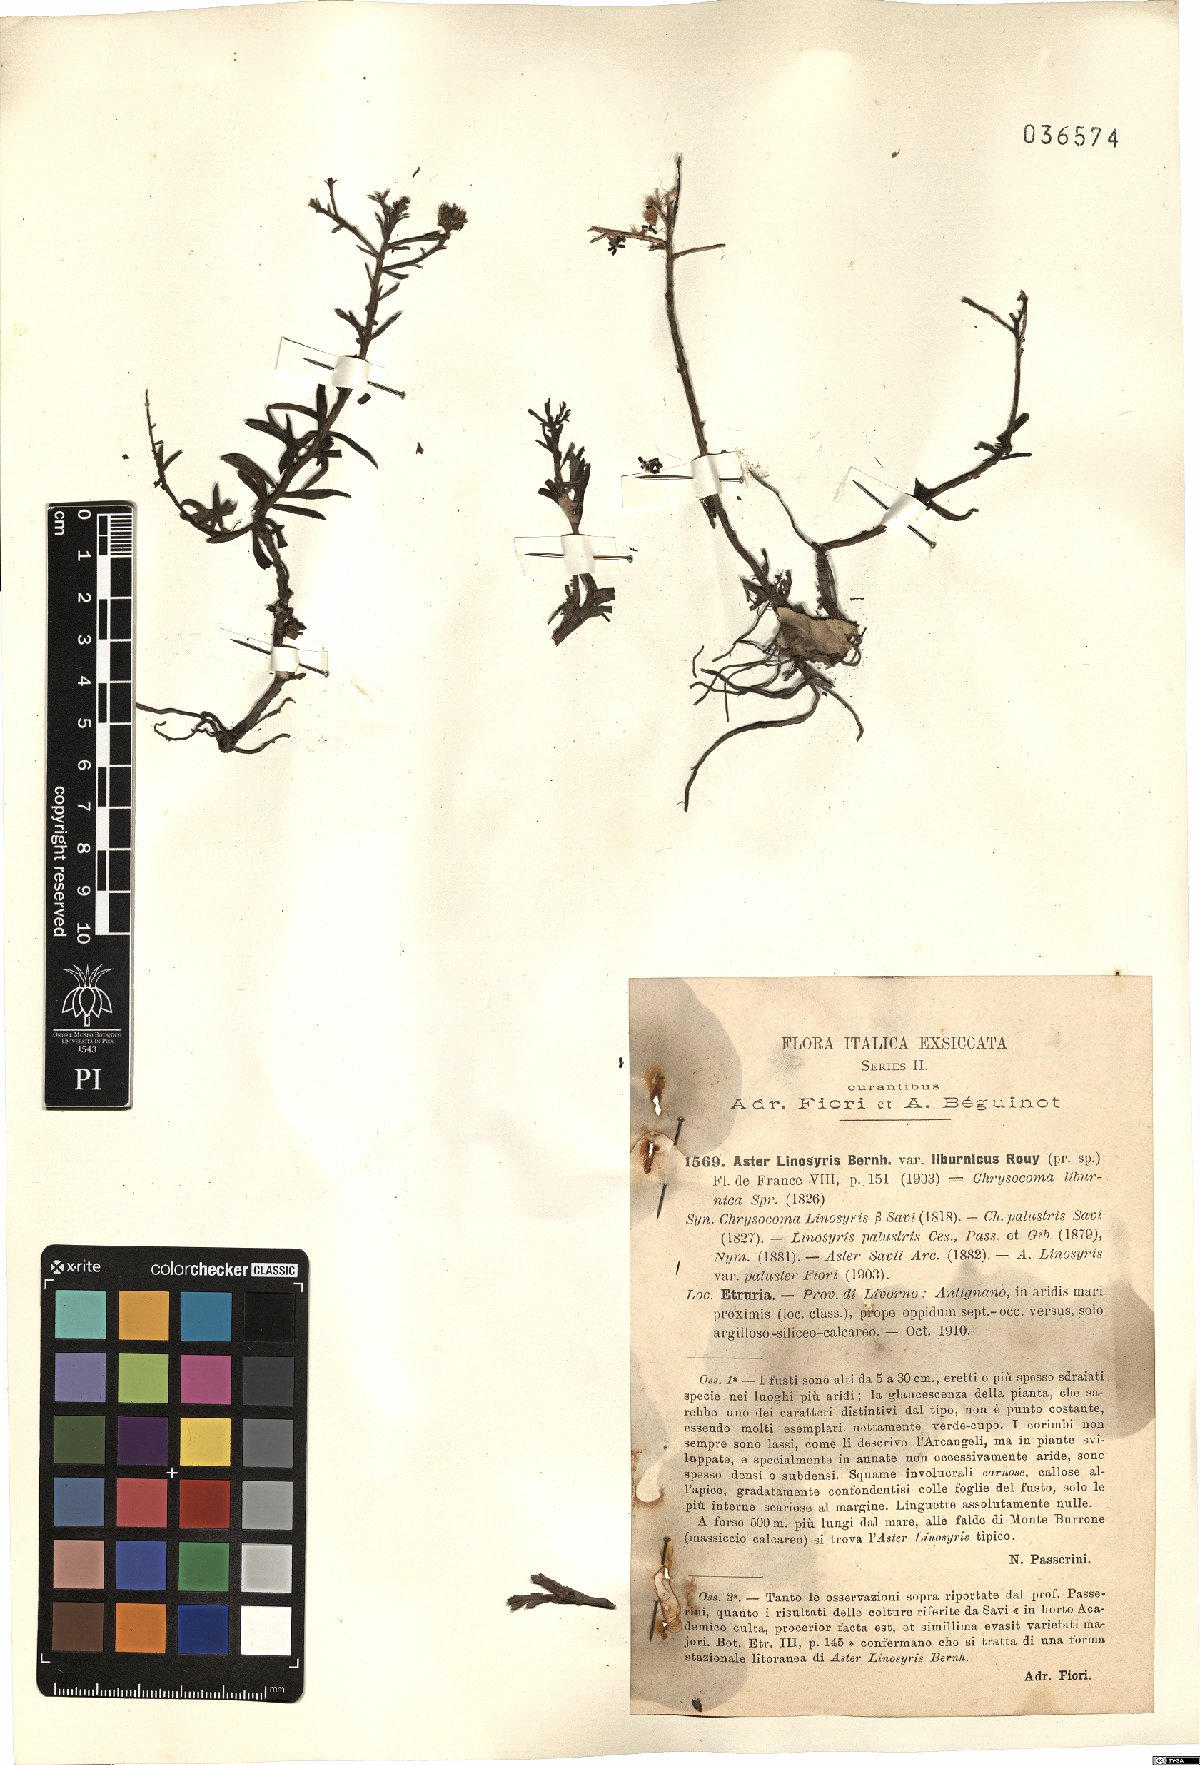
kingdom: Plantae
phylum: Tracheophyta
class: Magnoliopsida
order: Asterales
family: Asteraceae
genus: Galatella
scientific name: Galatella linosyris
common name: Goldilocks aster
